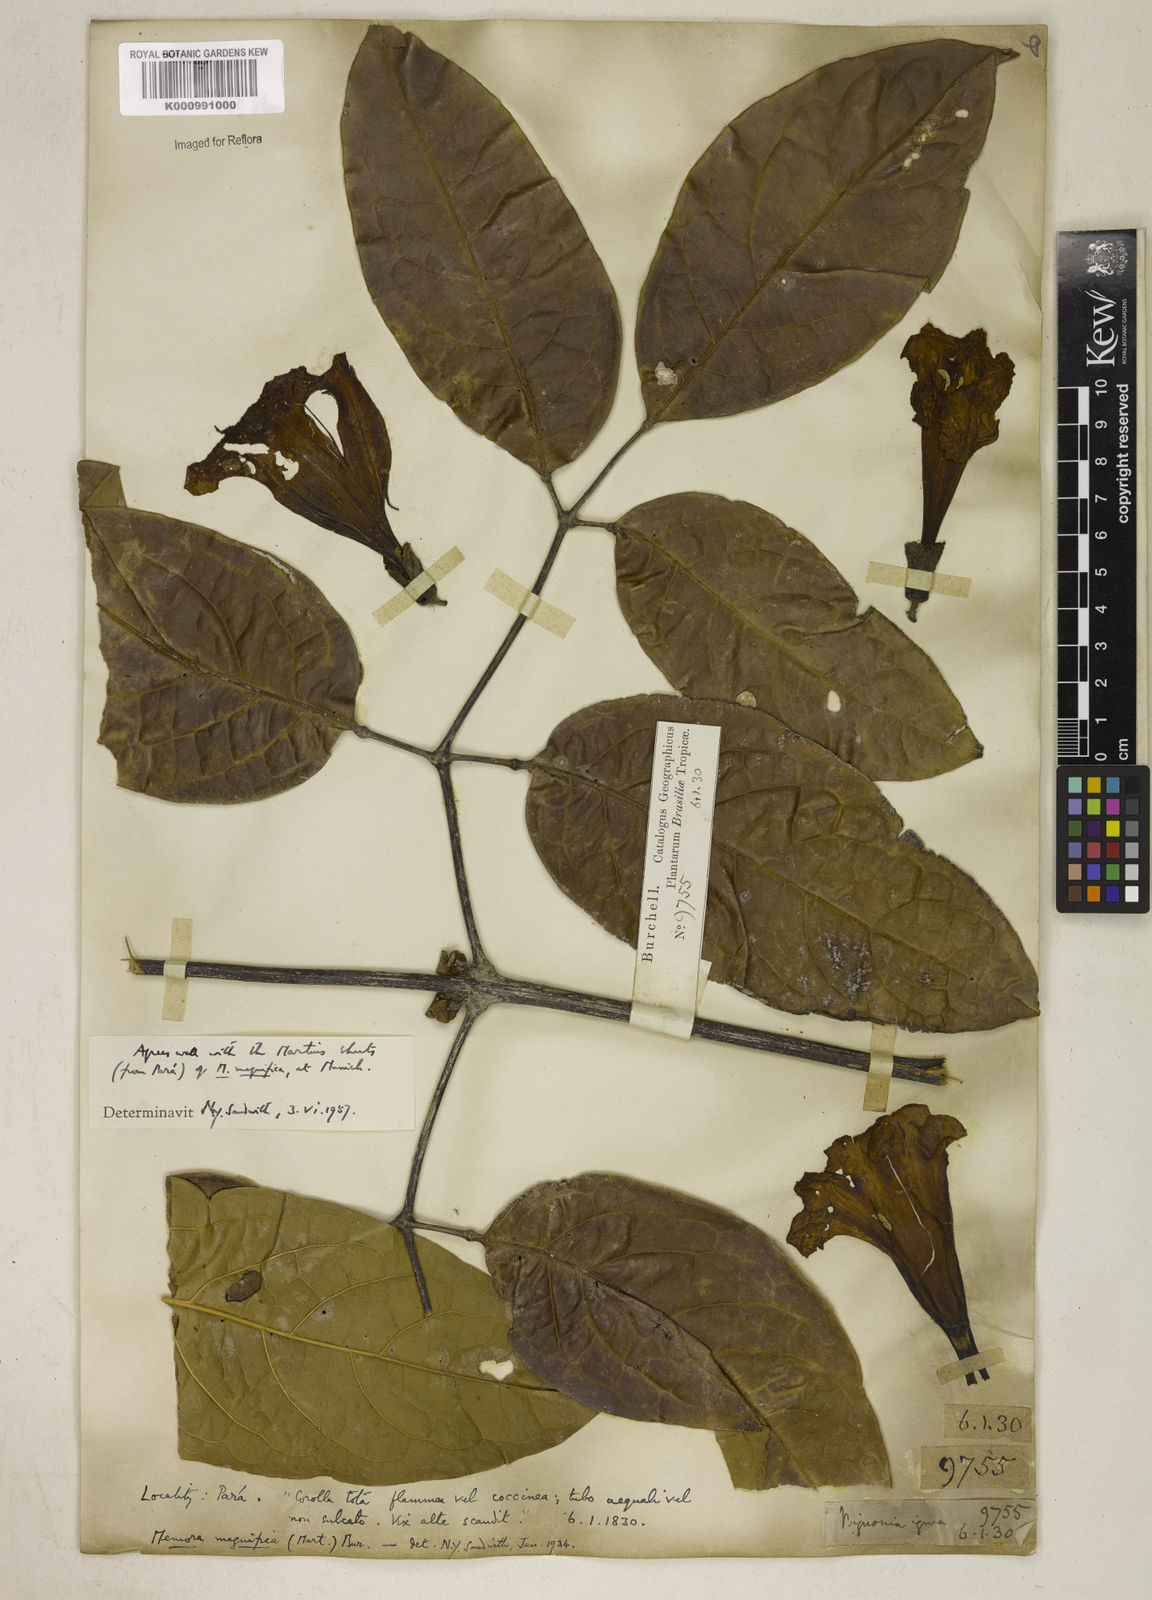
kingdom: Plantae
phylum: Tracheophyta
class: Magnoliopsida
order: Lamiales
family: Bignoniaceae
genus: Adenocalymma
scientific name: Adenocalymma magnificum
